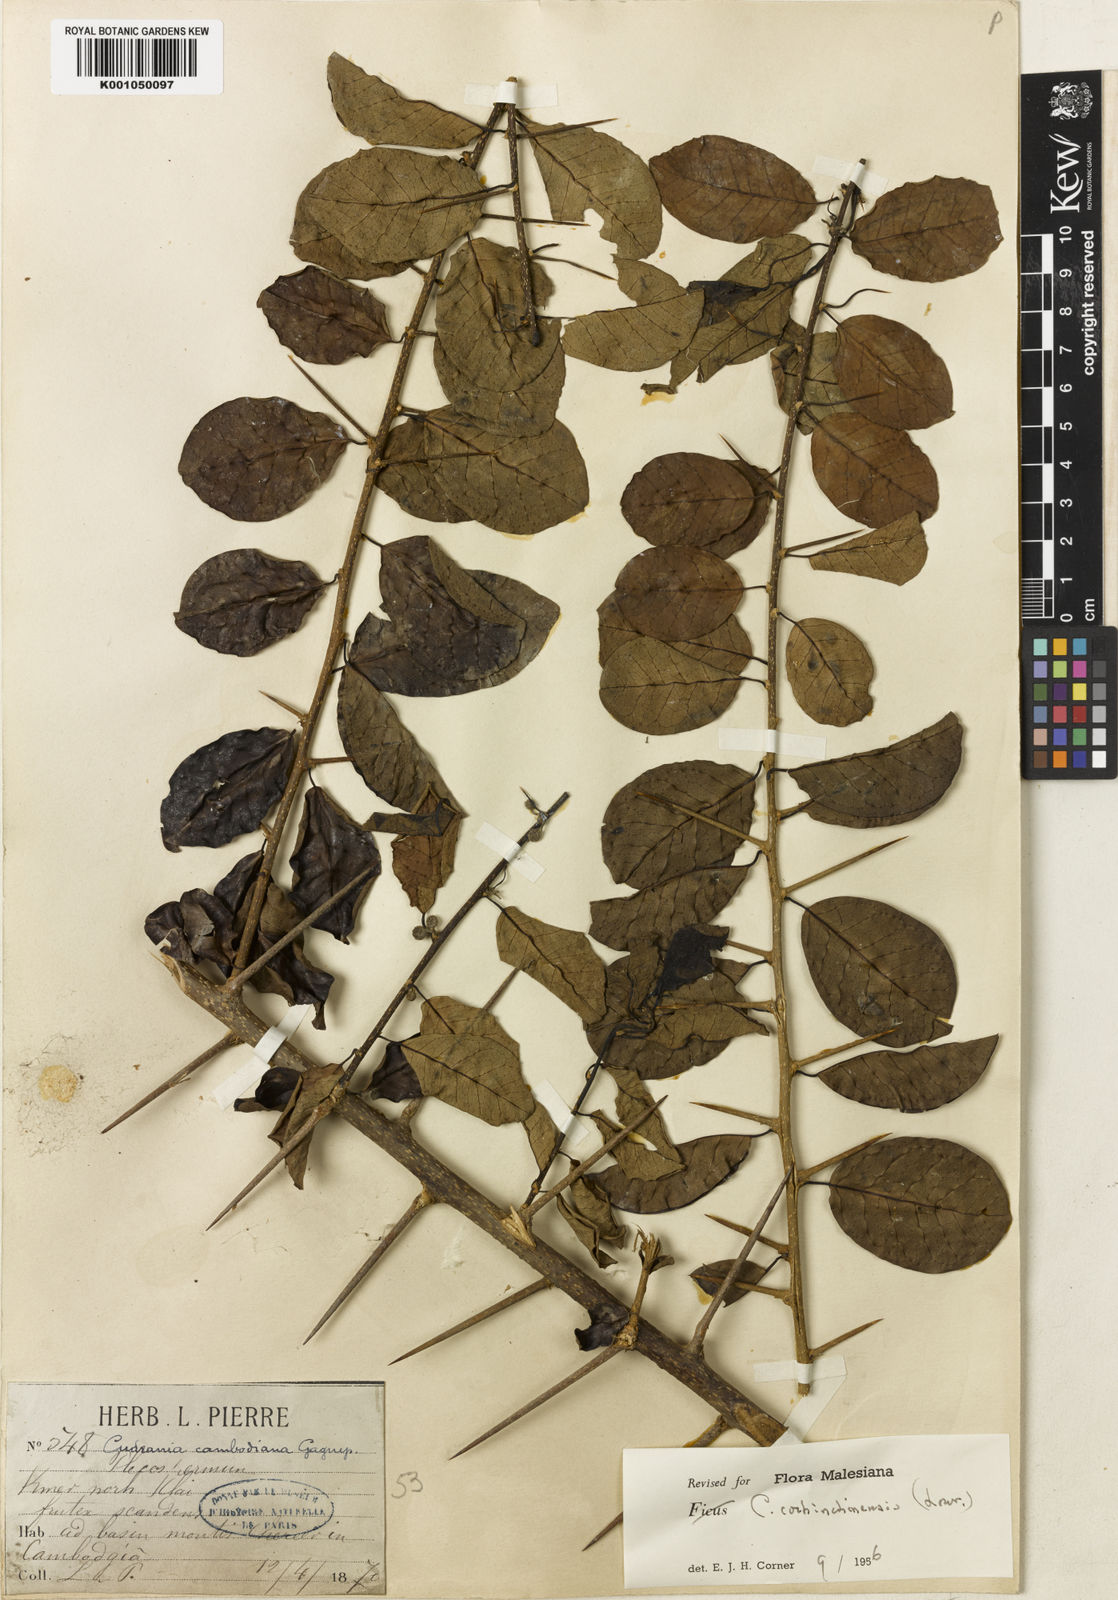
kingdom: Plantae
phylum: Tracheophyta
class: Magnoliopsida
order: Rosales
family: Moraceae
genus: Maclura
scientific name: Maclura cochinchinensis
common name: Cockspurthorn
